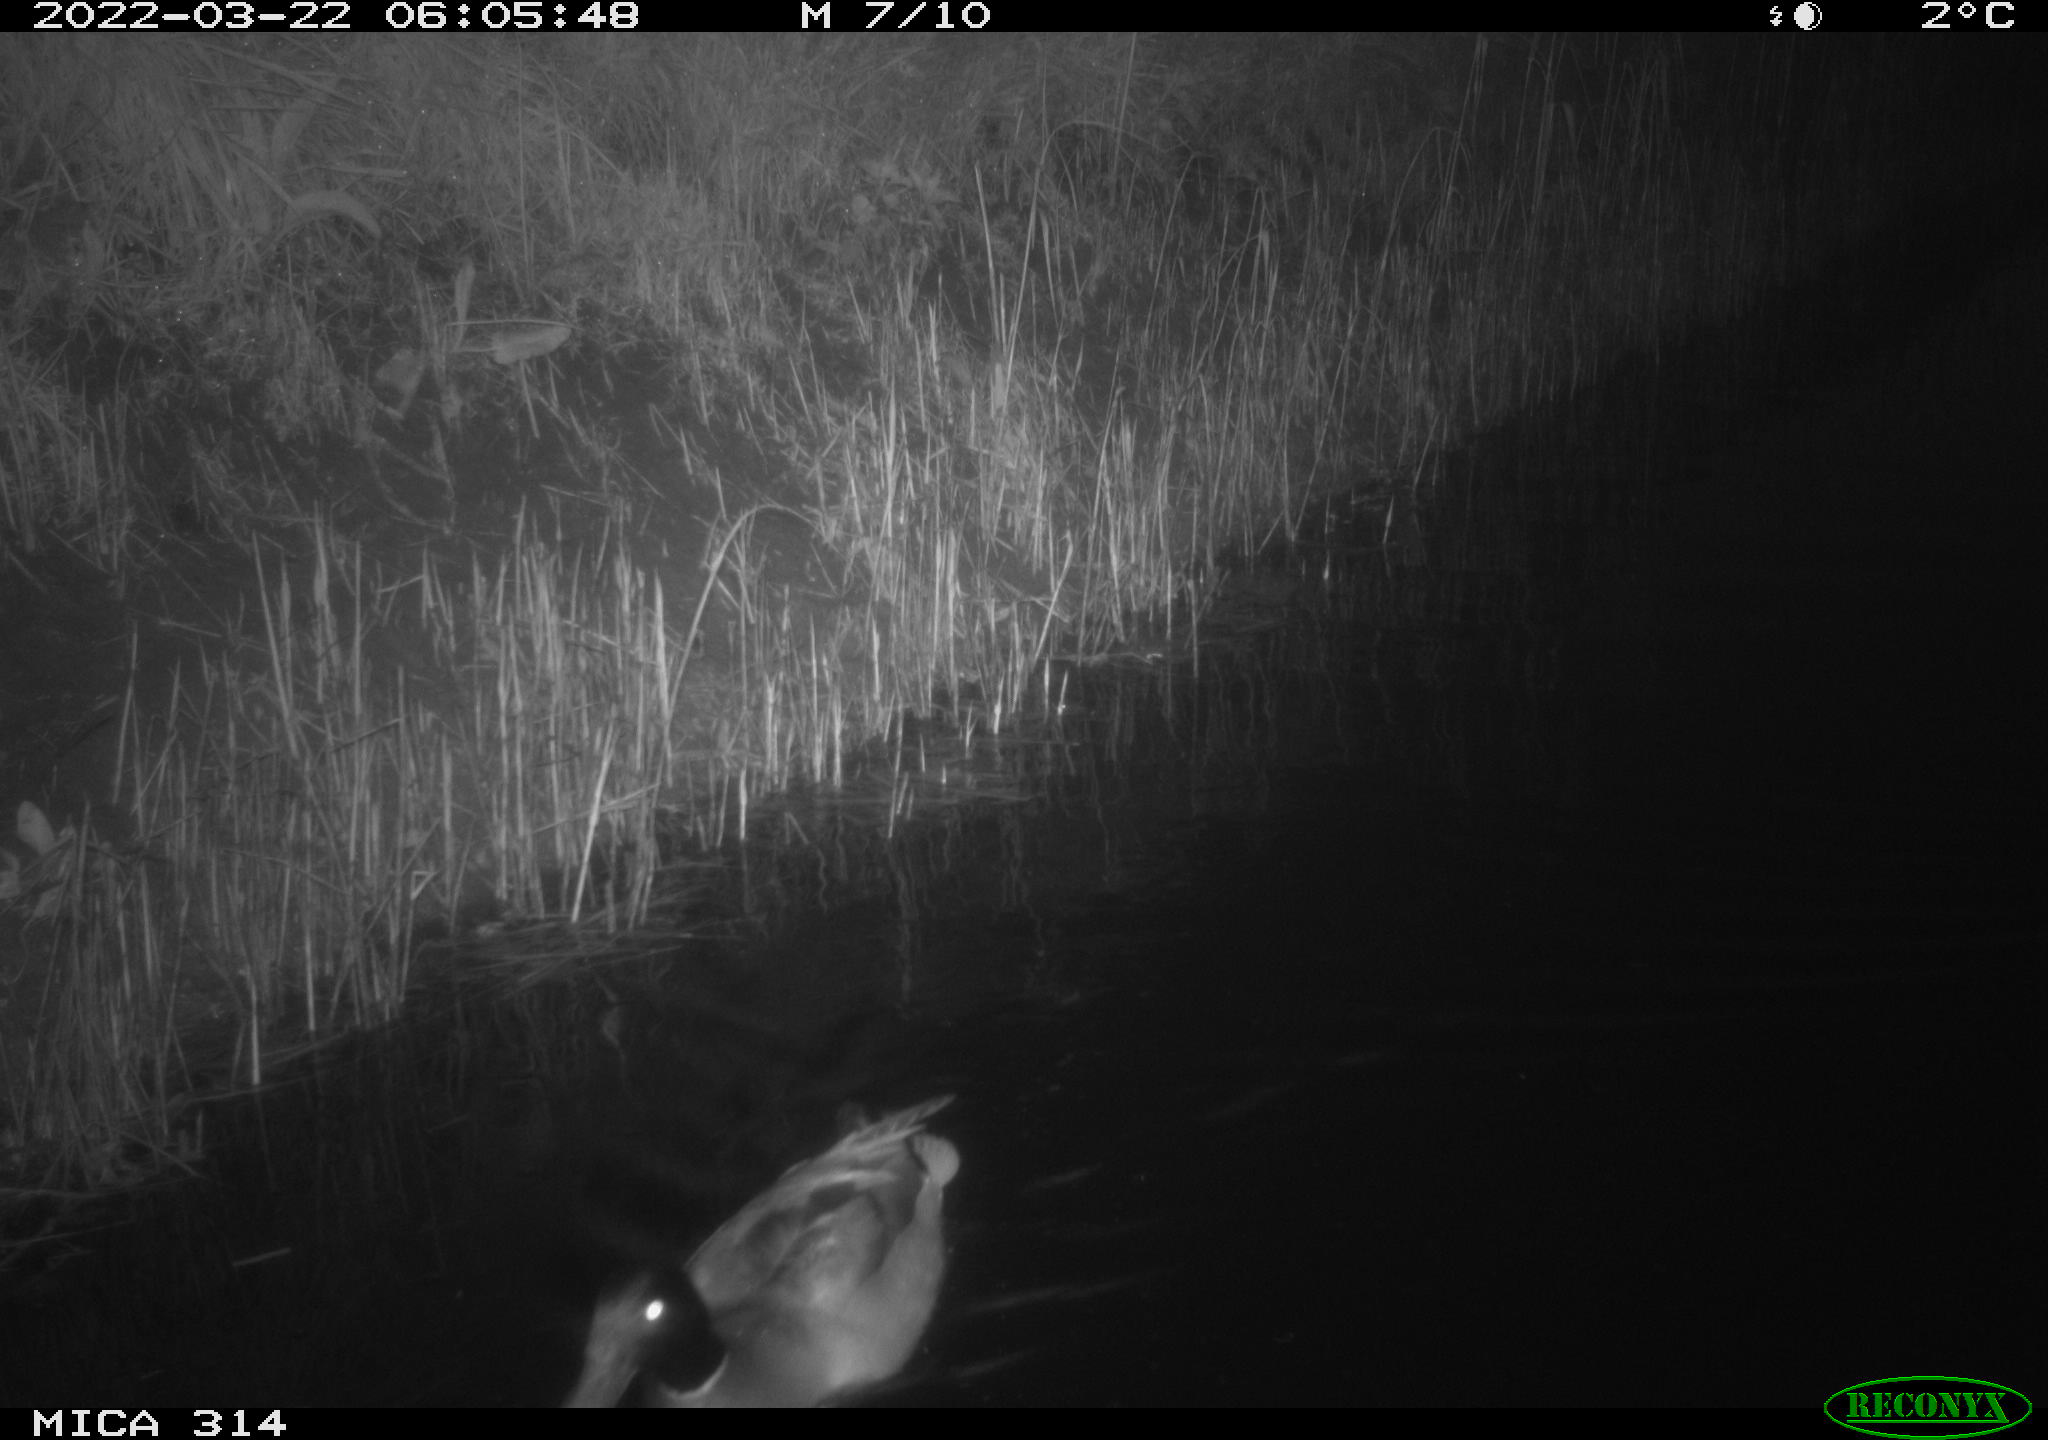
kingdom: Animalia
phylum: Chordata
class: Aves
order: Anseriformes
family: Anatidae
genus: Anas
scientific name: Anas platyrhynchos
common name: Mallard
